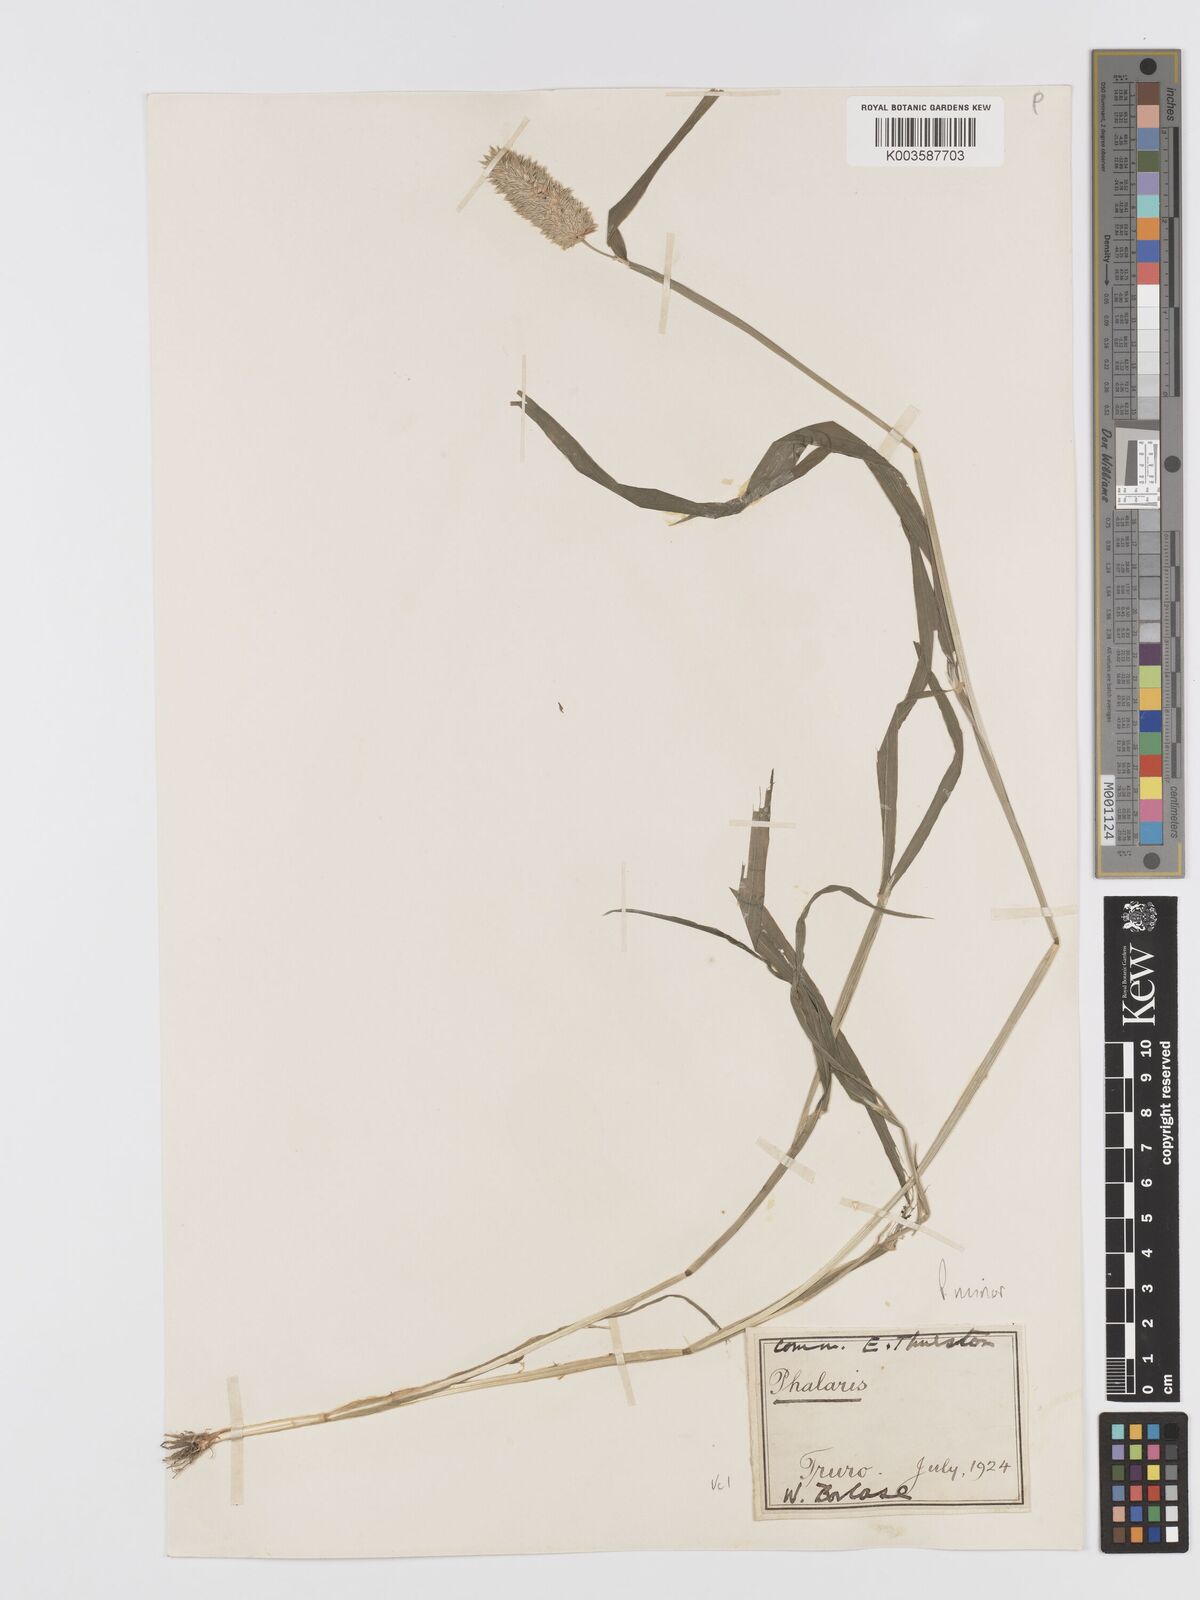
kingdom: Plantae
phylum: Tracheophyta
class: Liliopsida
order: Poales
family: Poaceae
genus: Phalaris
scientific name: Phalaris minor
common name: Littleseed canarygrass
